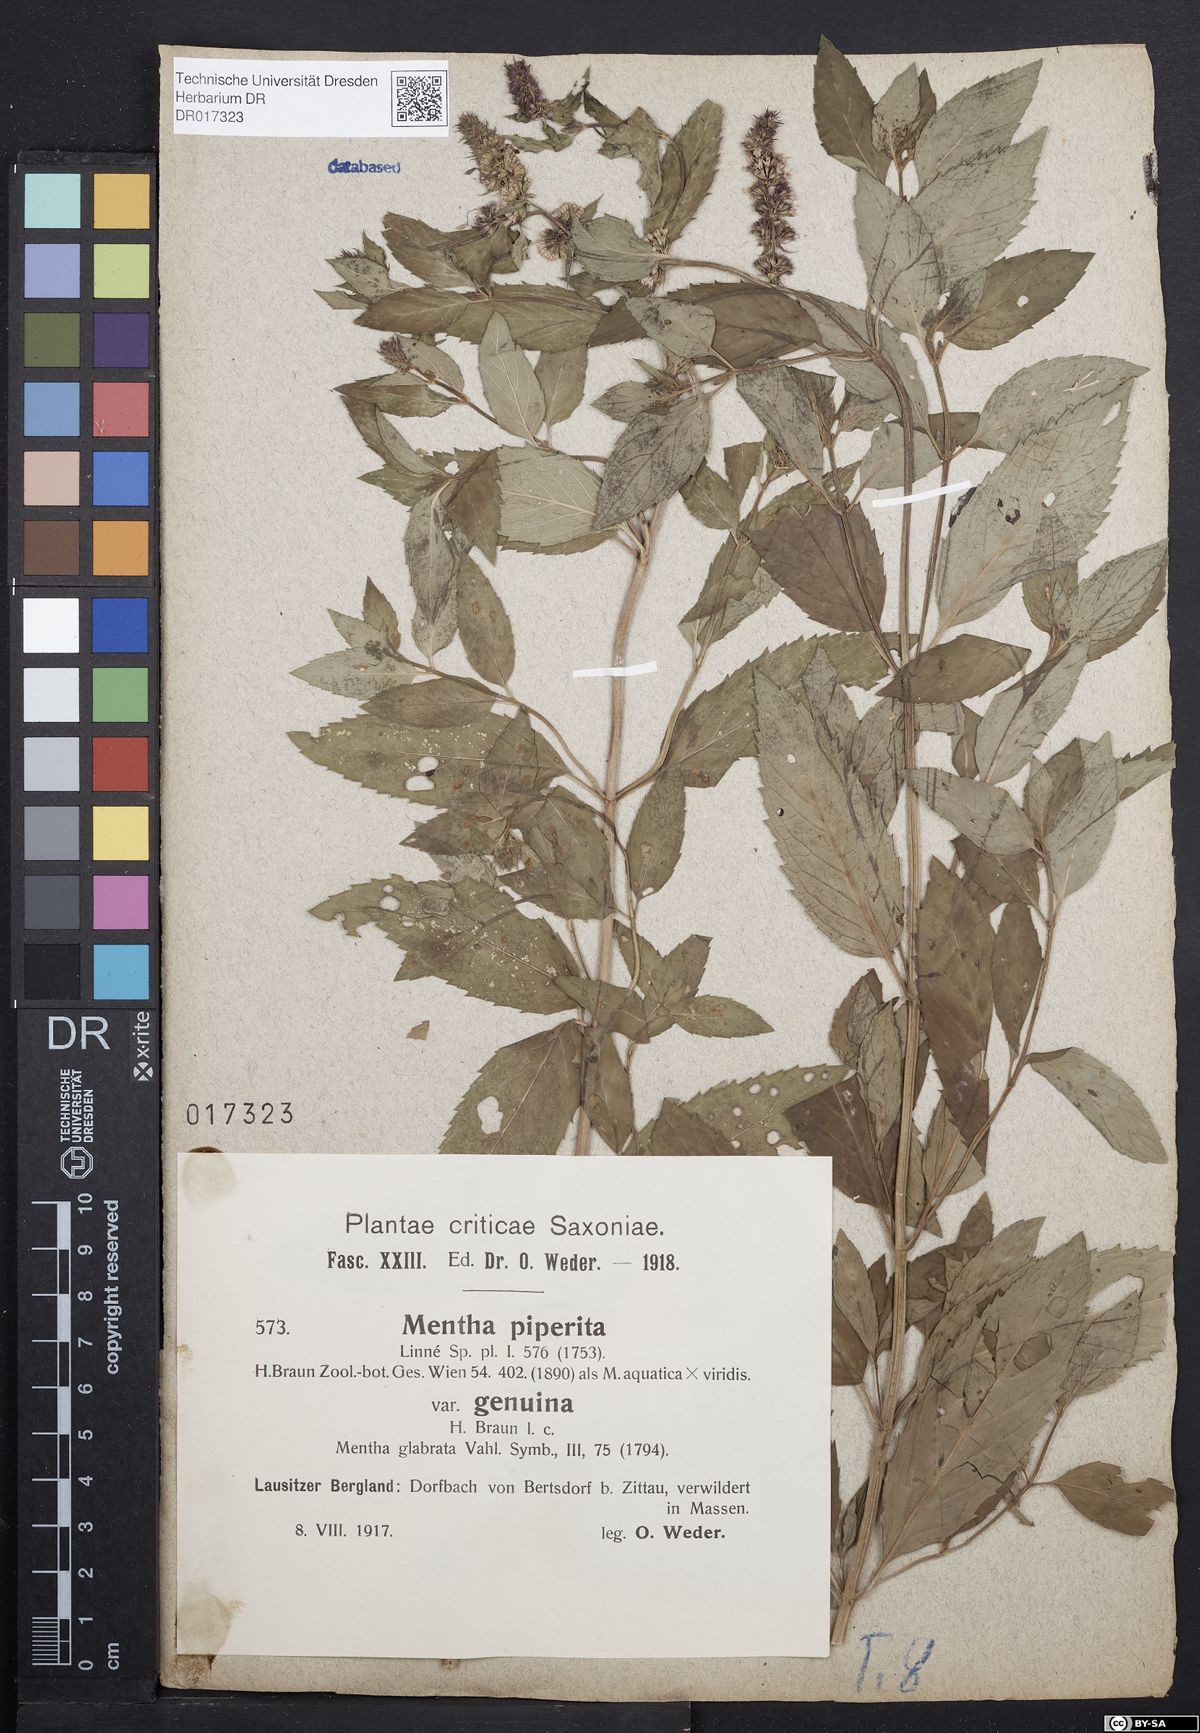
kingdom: Plantae
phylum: Tracheophyta
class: Magnoliopsida
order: Lamiales
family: Lamiaceae
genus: Mentha
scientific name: Mentha piperita
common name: Peppermint
